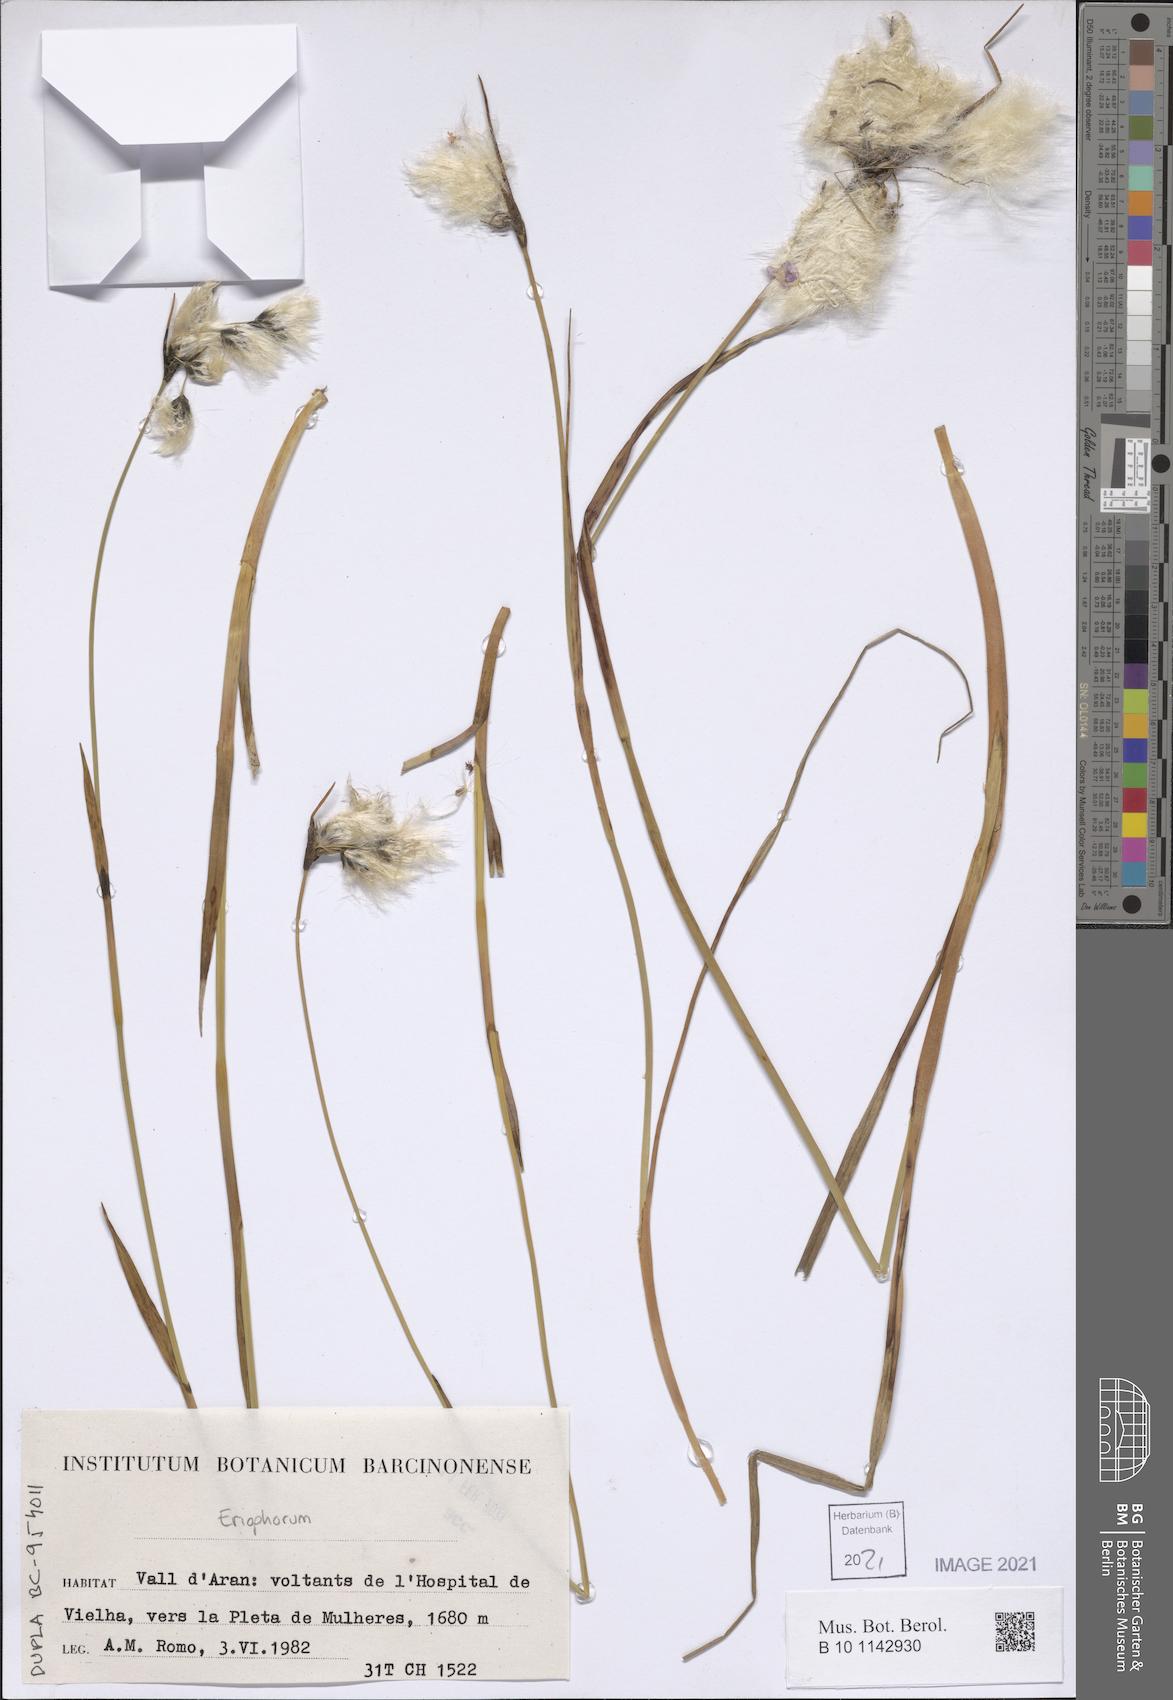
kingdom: Plantae
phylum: Tracheophyta
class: Liliopsida
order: Poales
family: Cyperaceae
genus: Eriophorum
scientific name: Eriophorum
